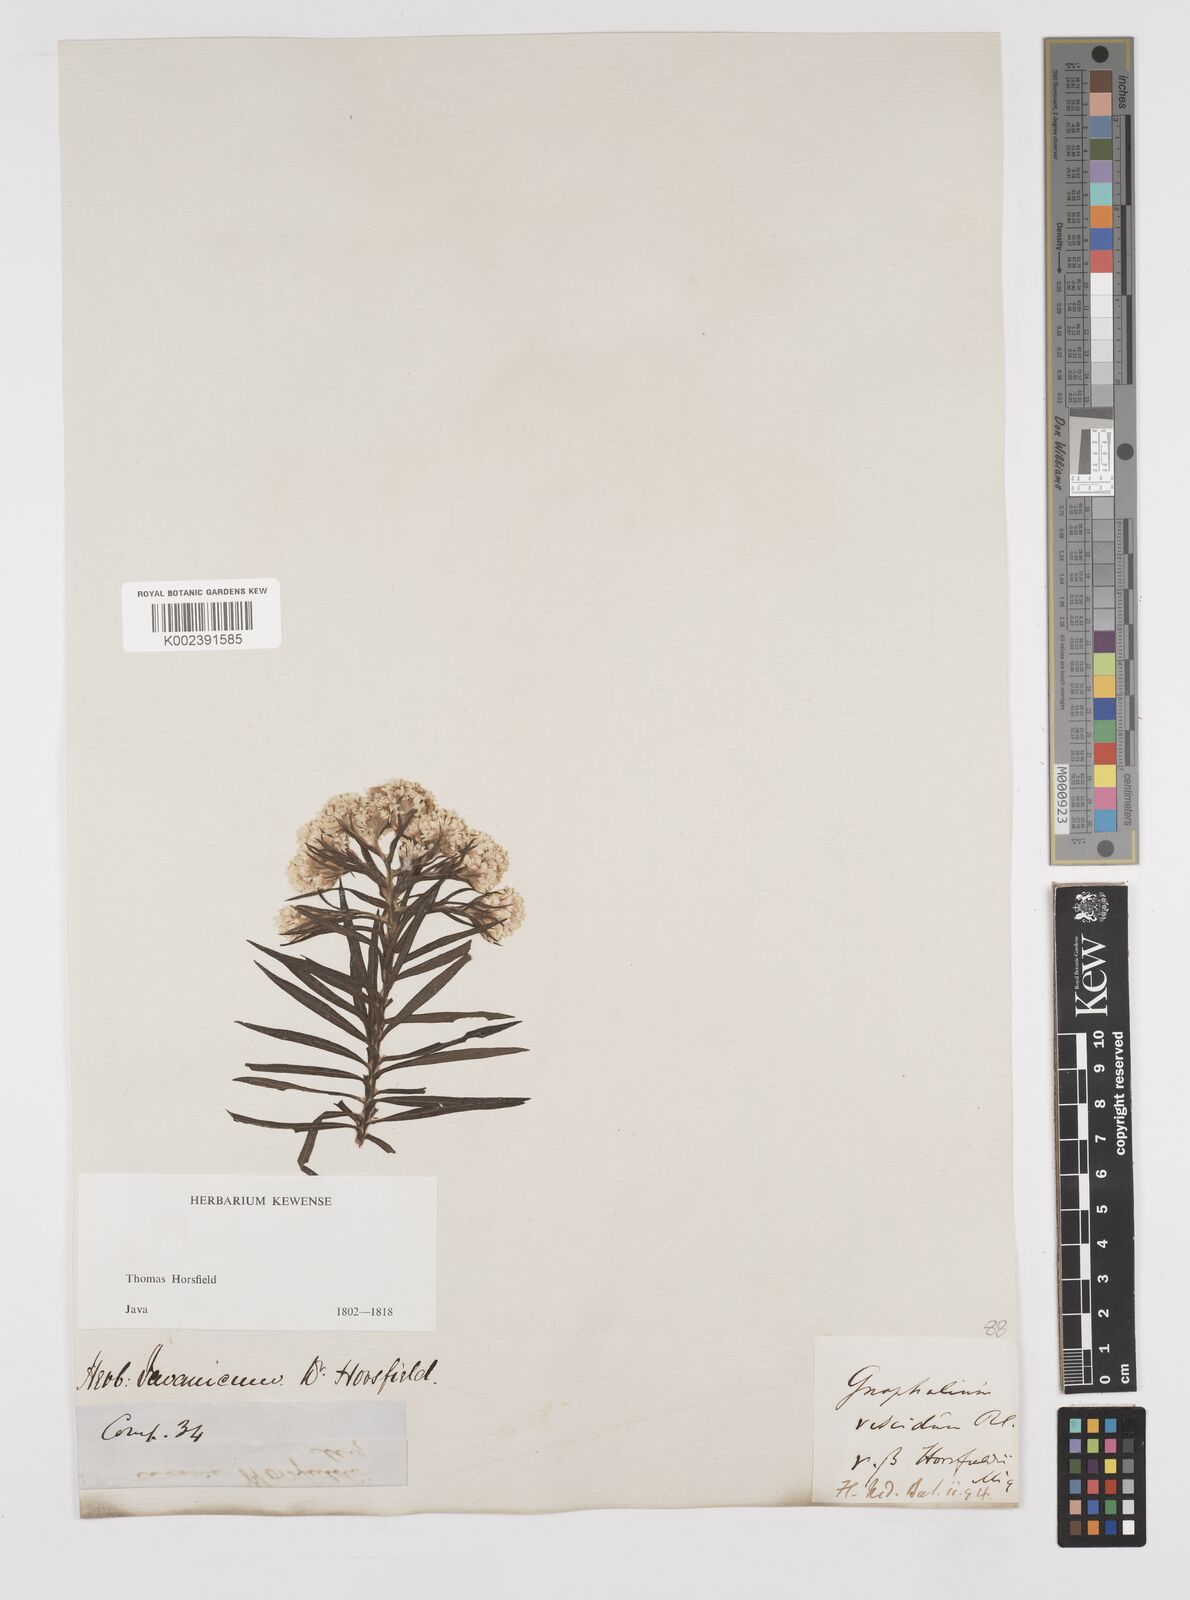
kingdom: Plantae
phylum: Tracheophyta
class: Magnoliopsida
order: Asterales
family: Asteraceae
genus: Anaphalis
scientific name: Anaphalis longifolia
